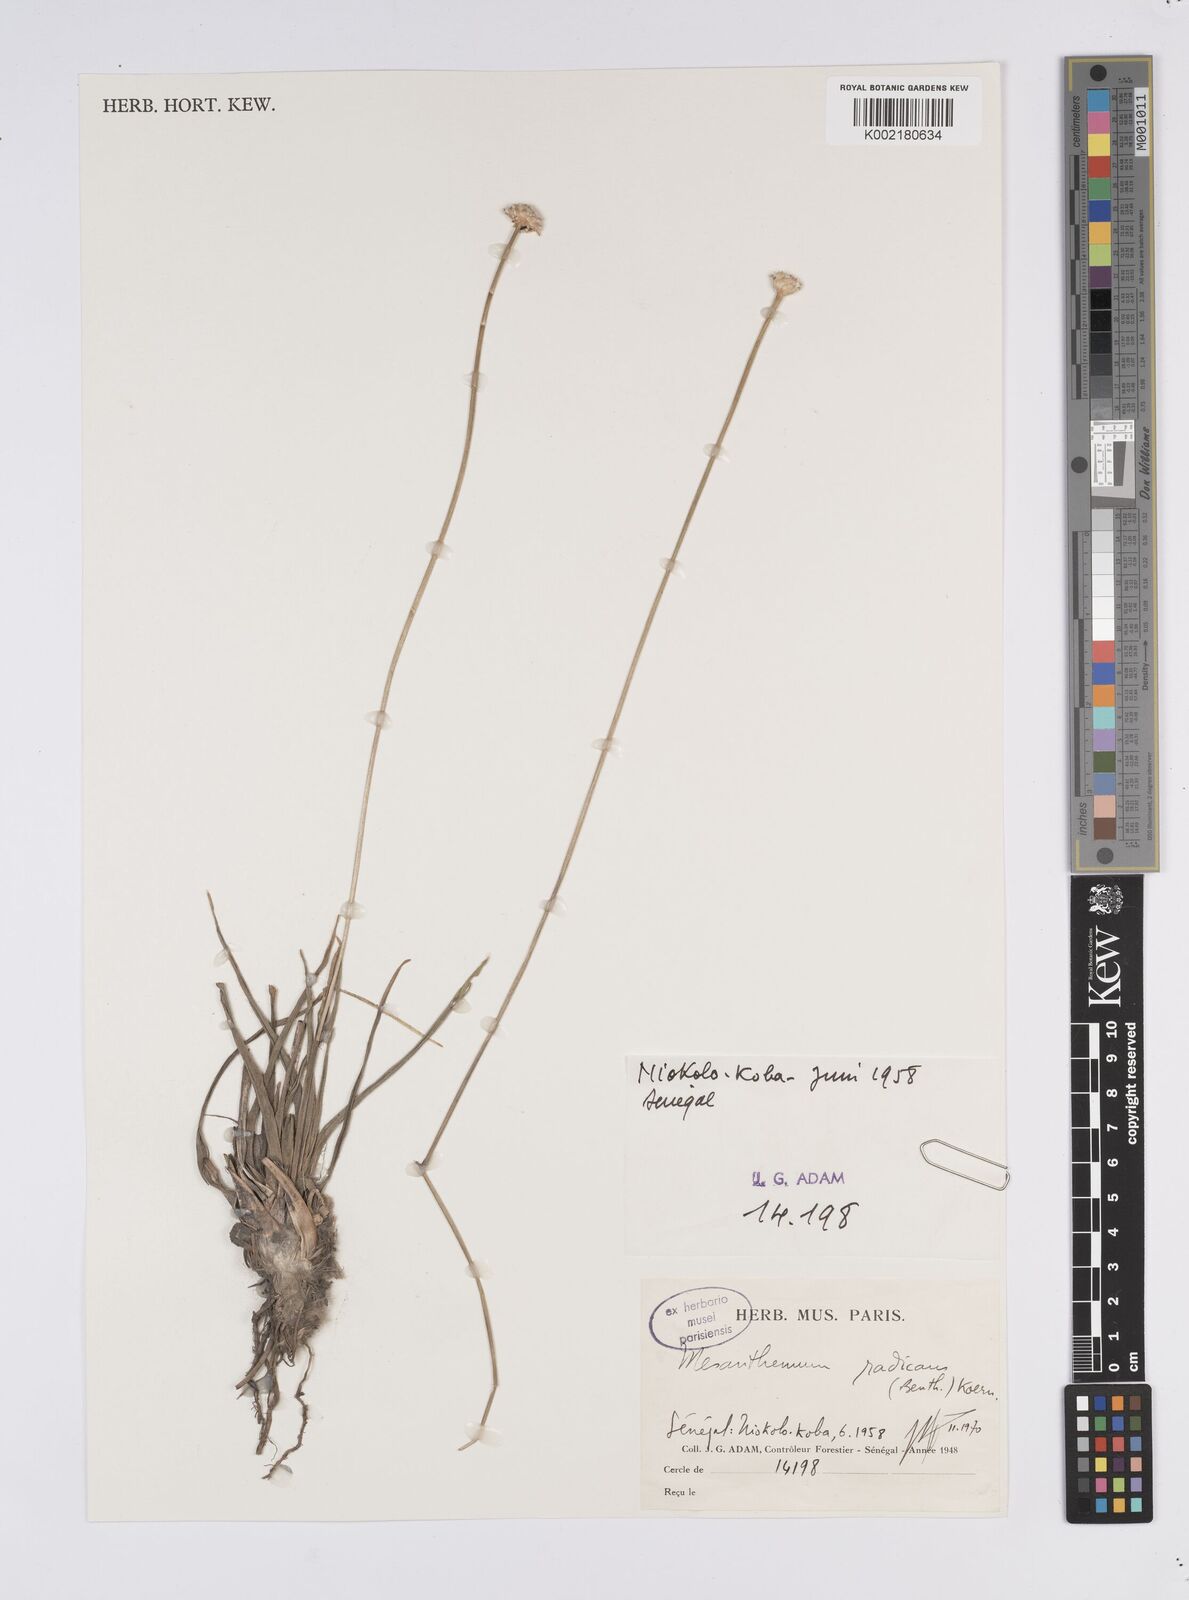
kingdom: Plantae
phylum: Tracheophyta
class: Liliopsida
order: Poales
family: Eriocaulaceae
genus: Mesanthemum
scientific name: Mesanthemum radicans
